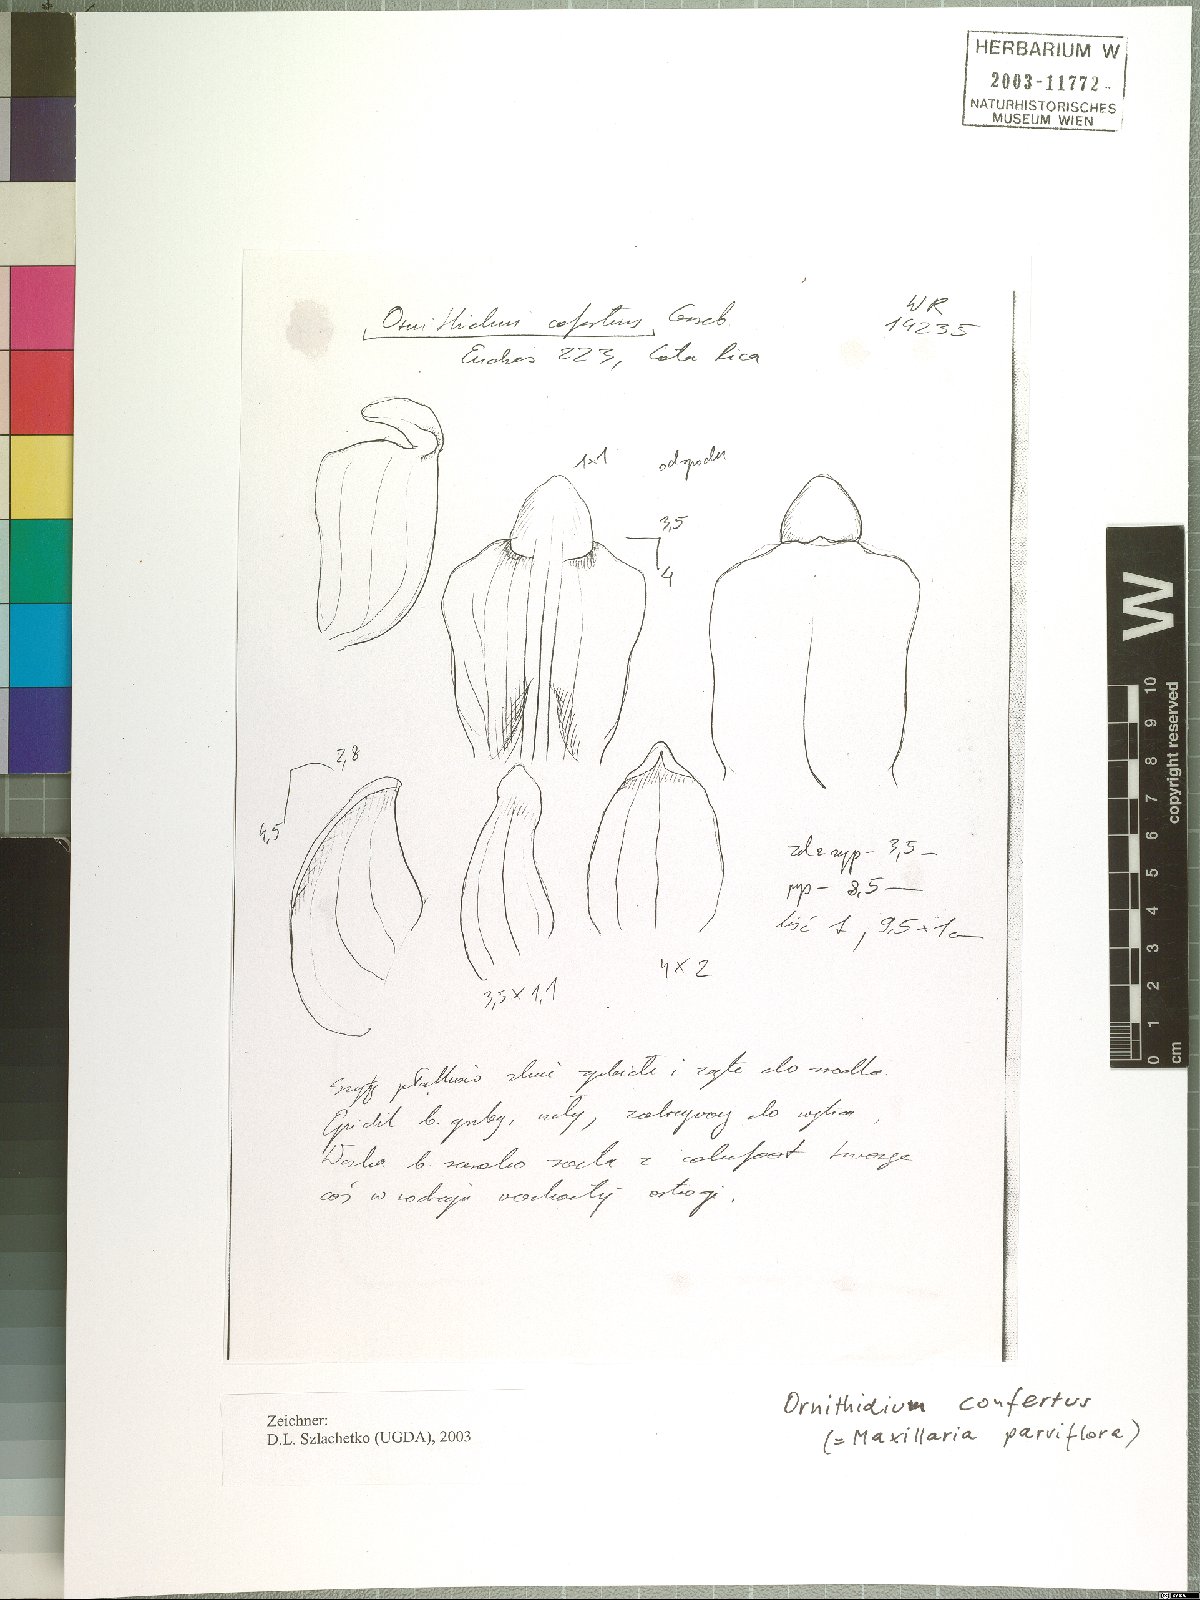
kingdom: Plantae
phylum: Tracheophyta
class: Liliopsida
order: Asparagales
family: Orchidaceae
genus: Maxillaria
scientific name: Maxillaria parviflora
